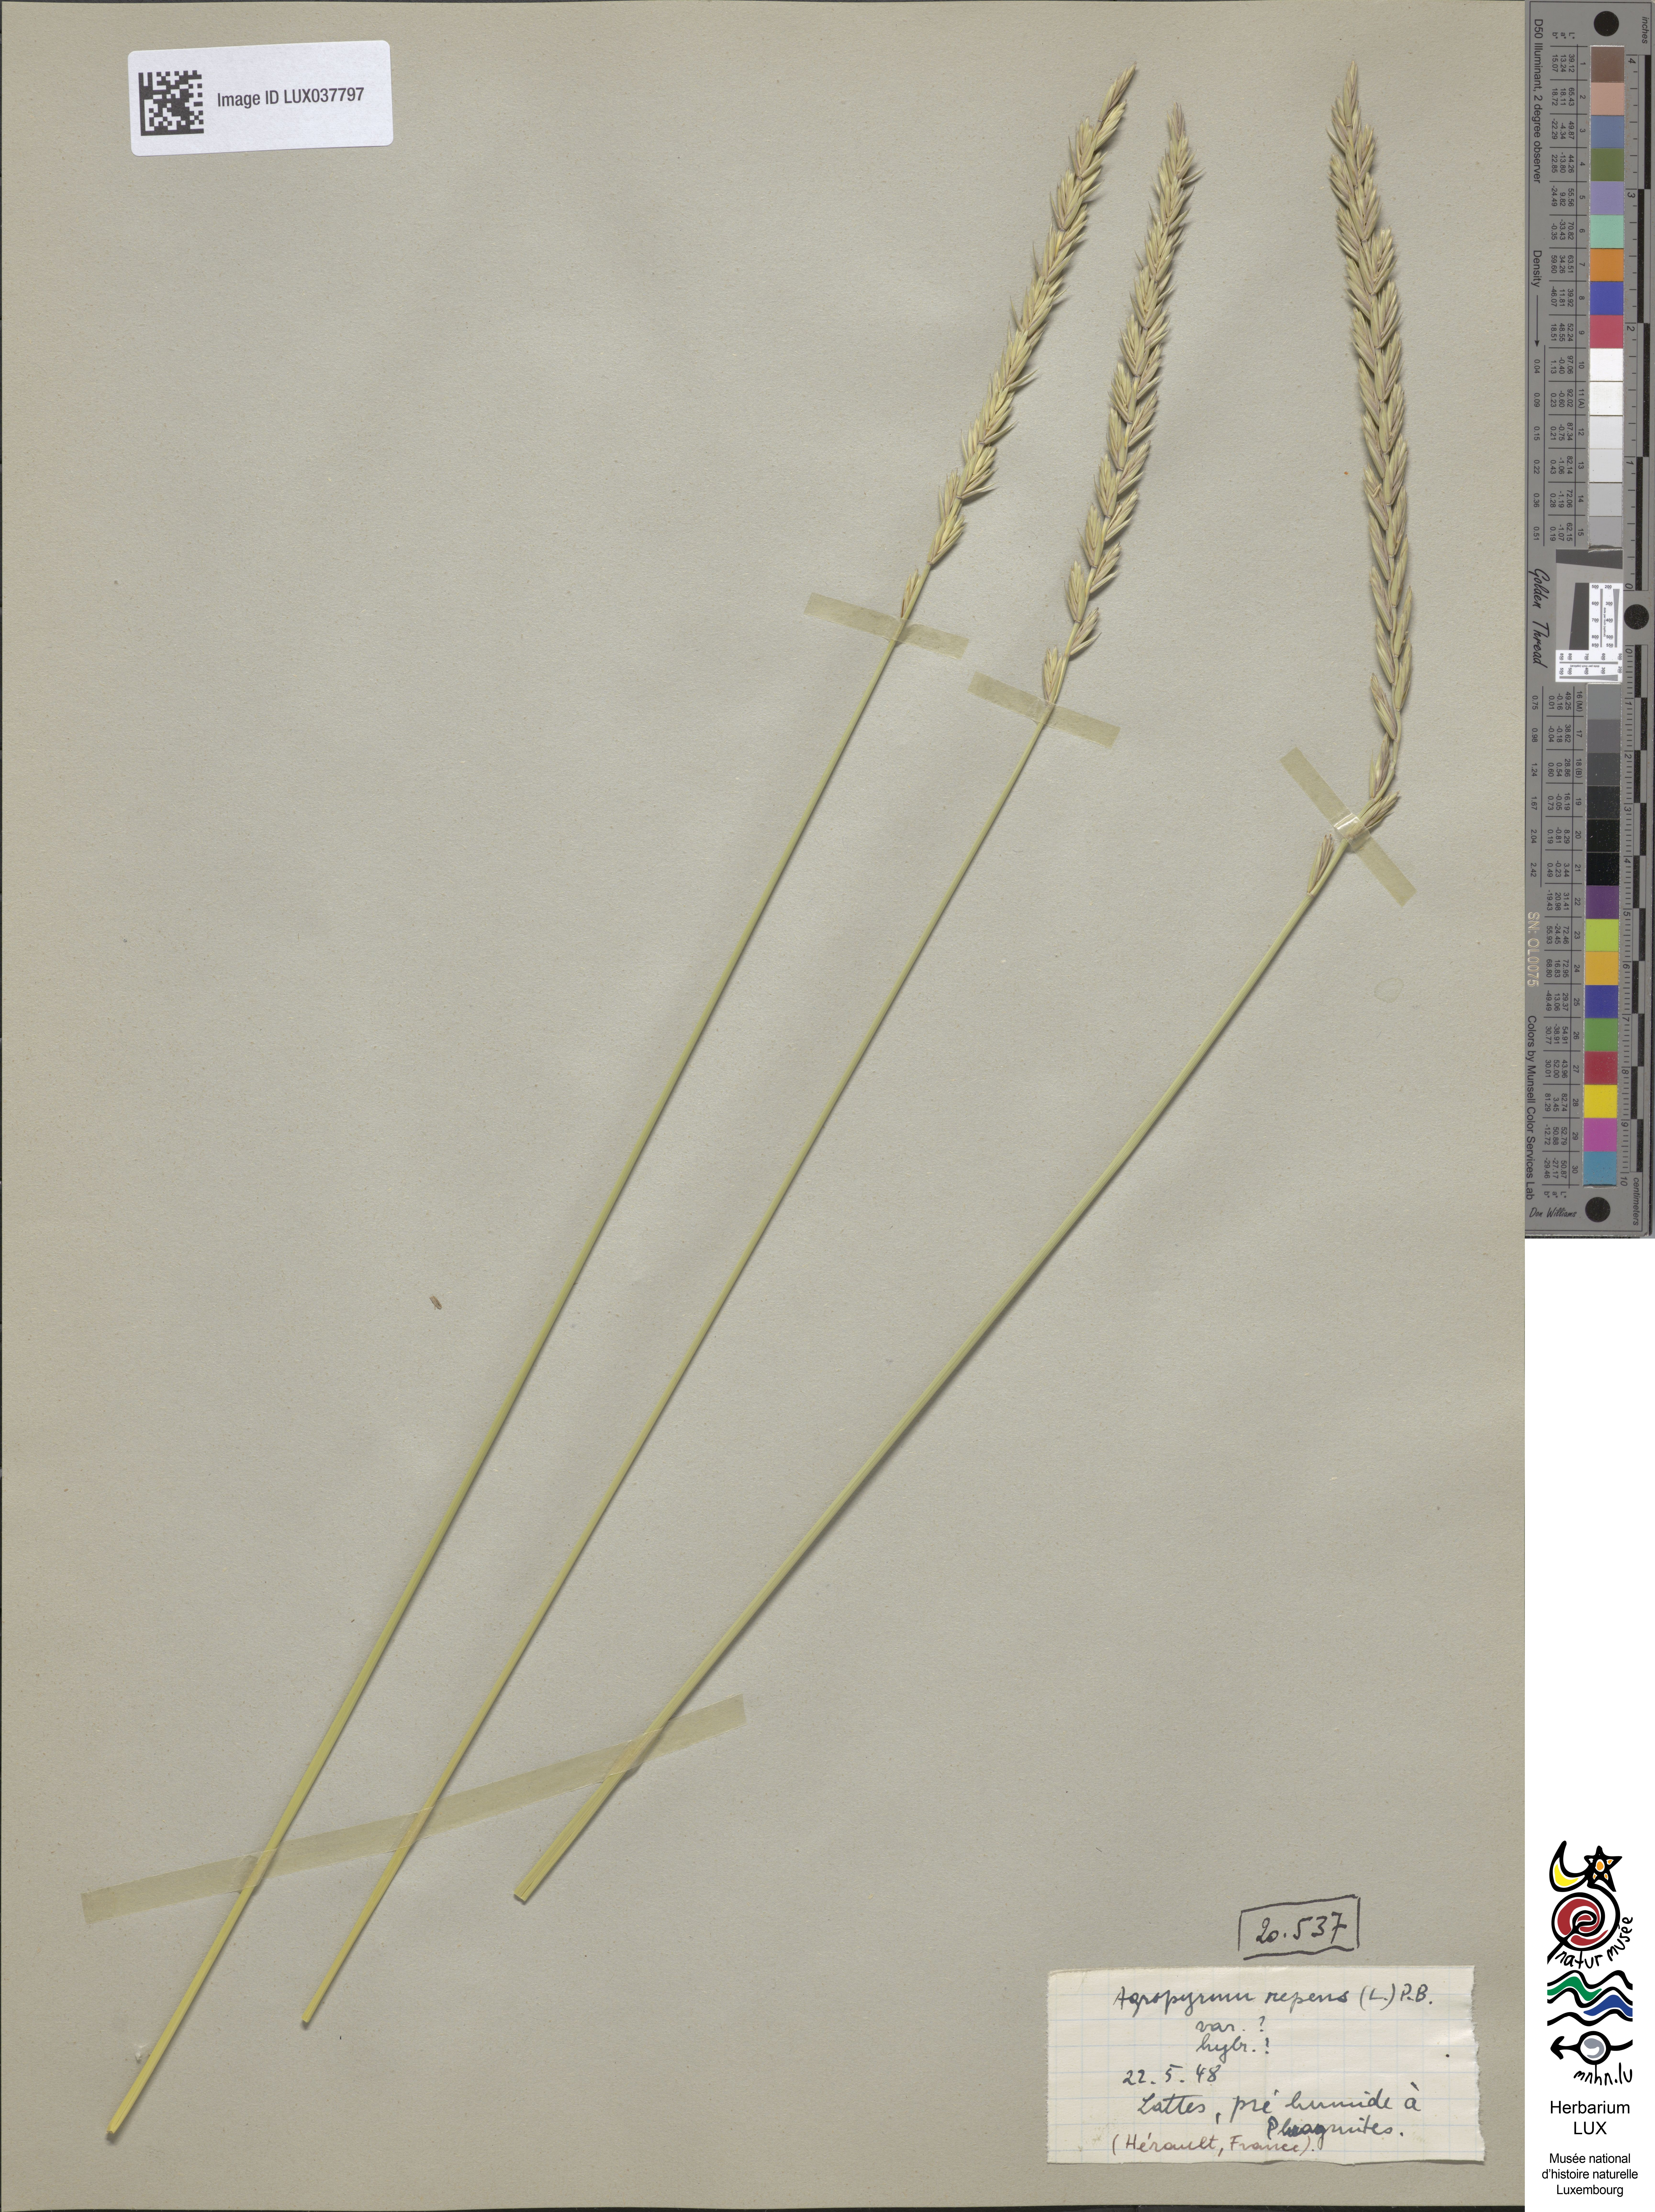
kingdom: Plantae
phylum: Tracheophyta
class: Liliopsida
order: Poales
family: Poaceae
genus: Elymus
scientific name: Elymus repens
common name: Quackgrass
